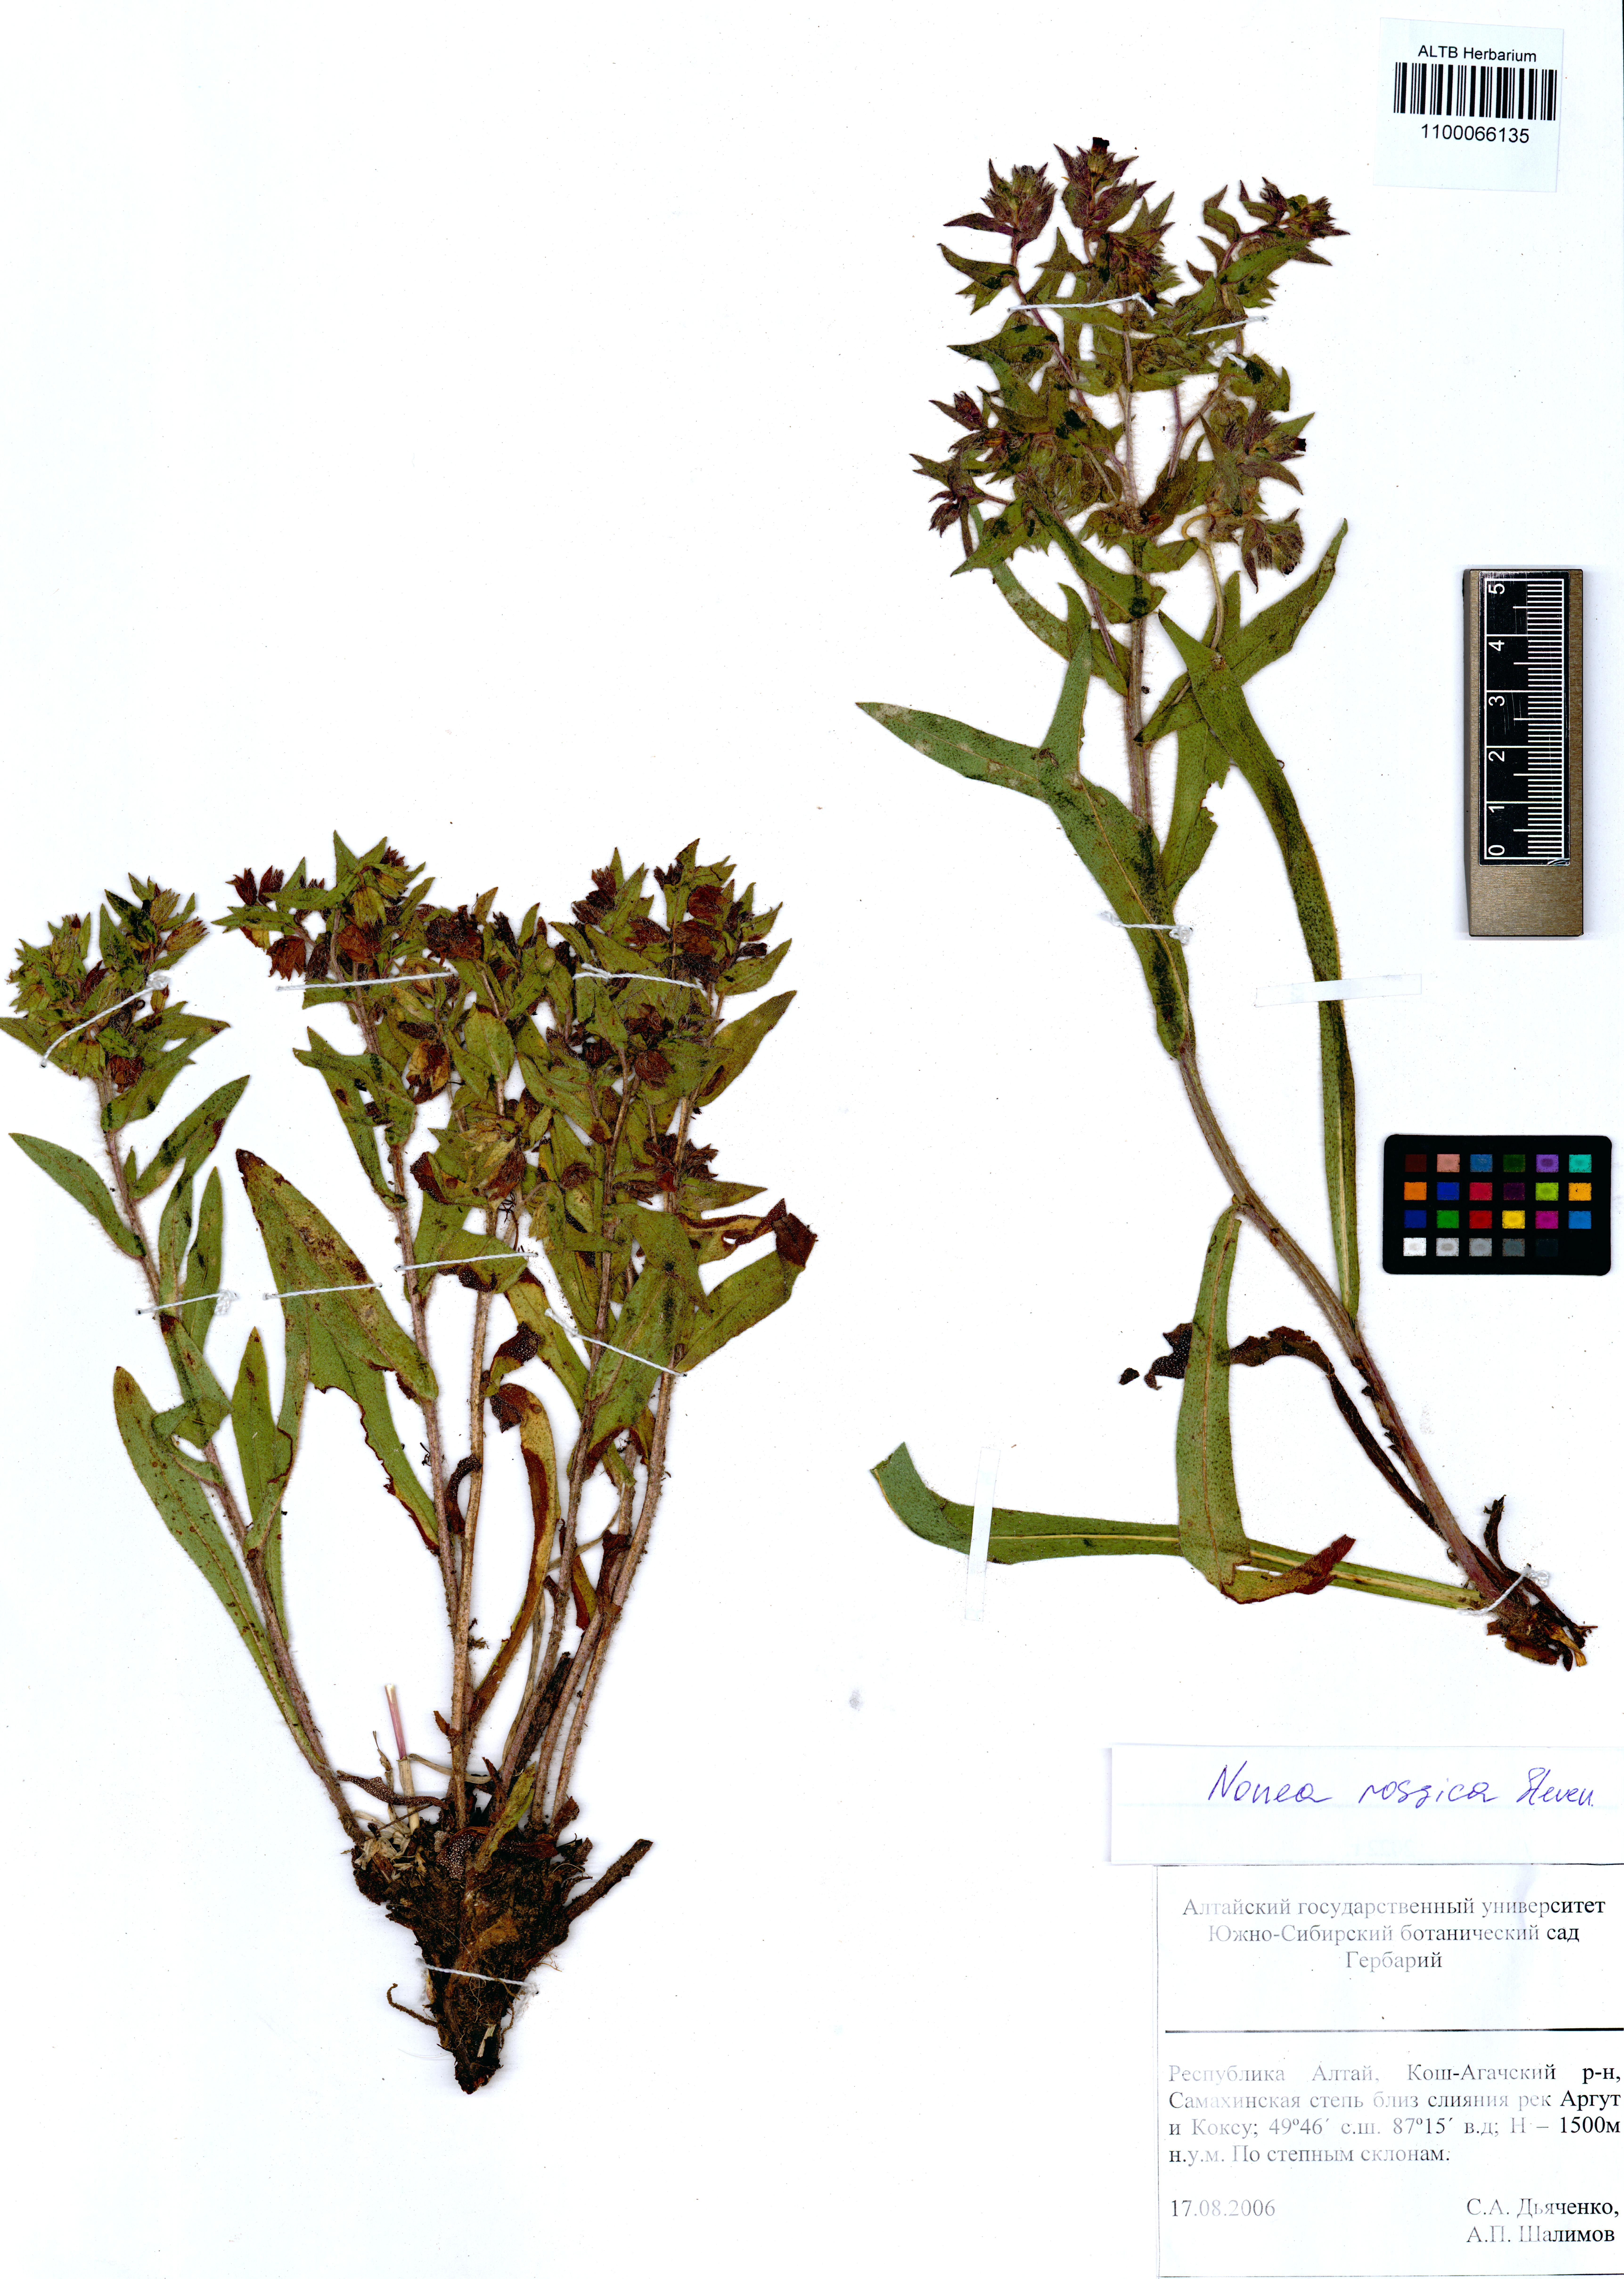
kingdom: Plantae
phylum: Tracheophyta
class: Magnoliopsida
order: Boraginales
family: Boraginaceae
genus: Nonea
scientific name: Nonea pulla
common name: Brown nonea
